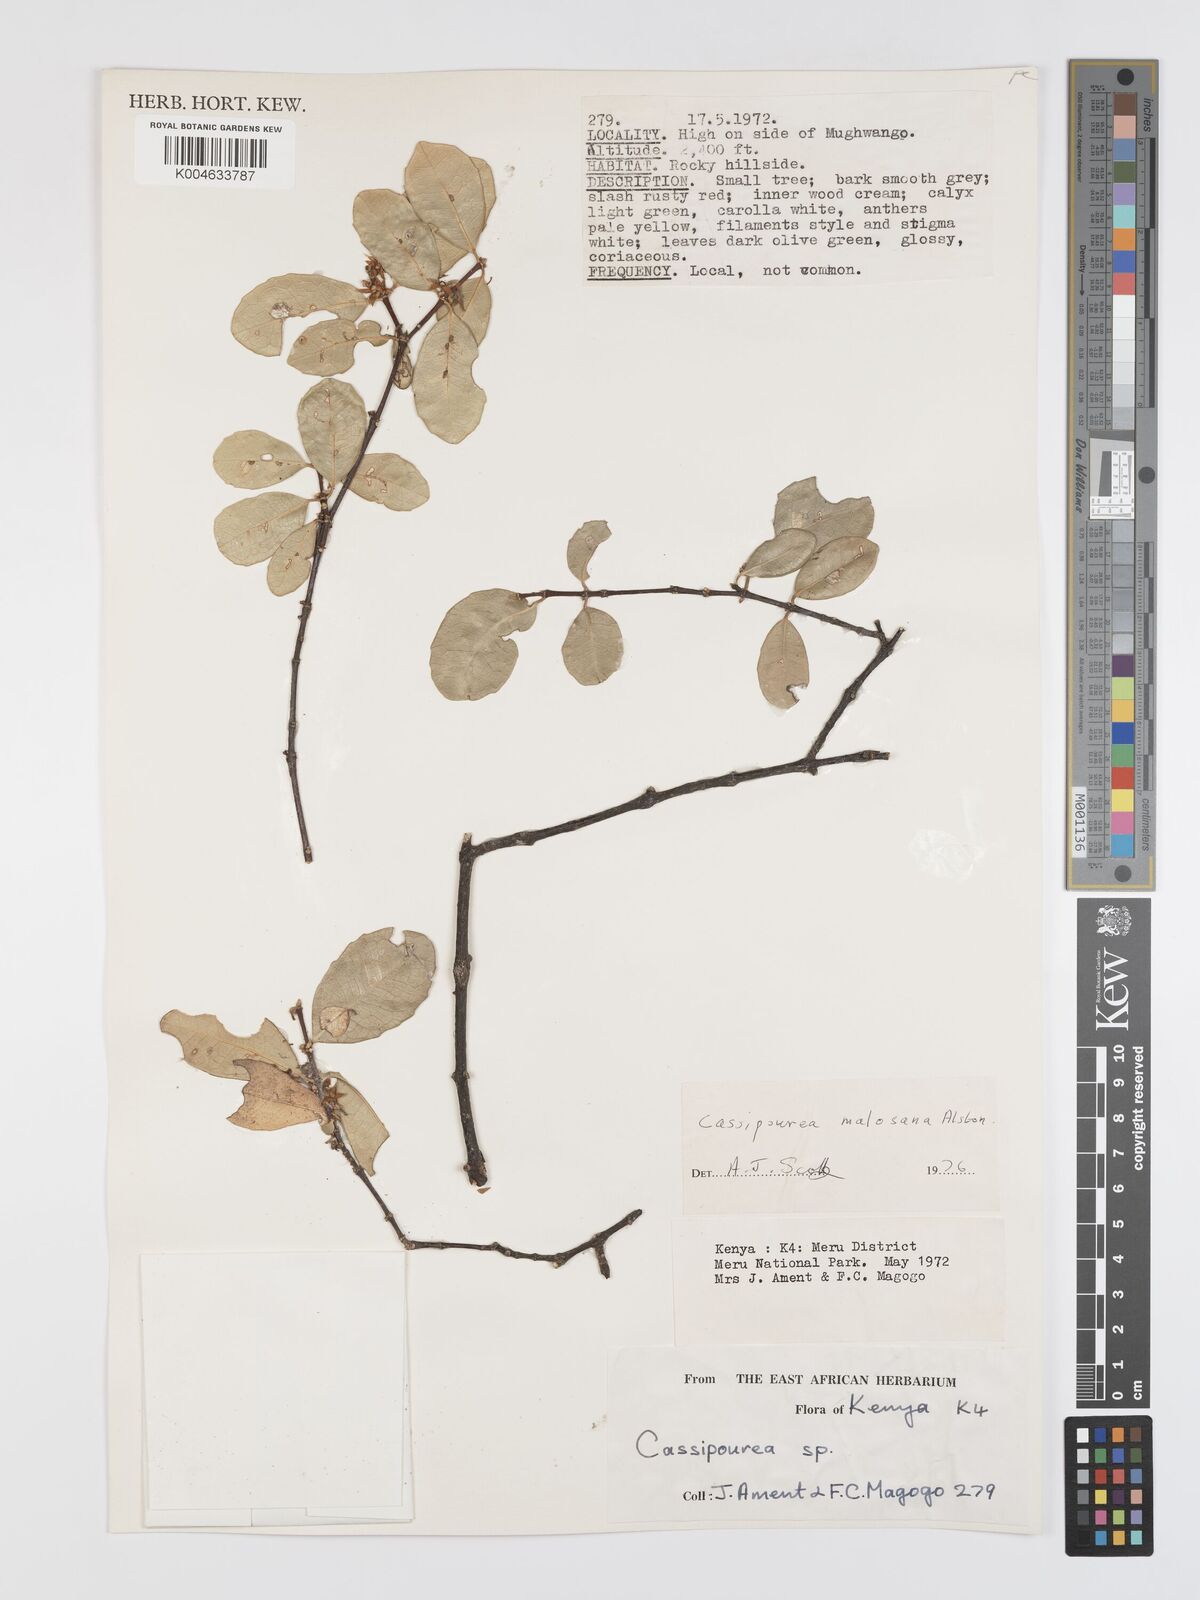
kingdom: Plantae
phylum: Tracheophyta
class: Magnoliopsida
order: Malpighiales
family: Rhizophoraceae
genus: Cassipourea
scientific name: Cassipourea malosana
